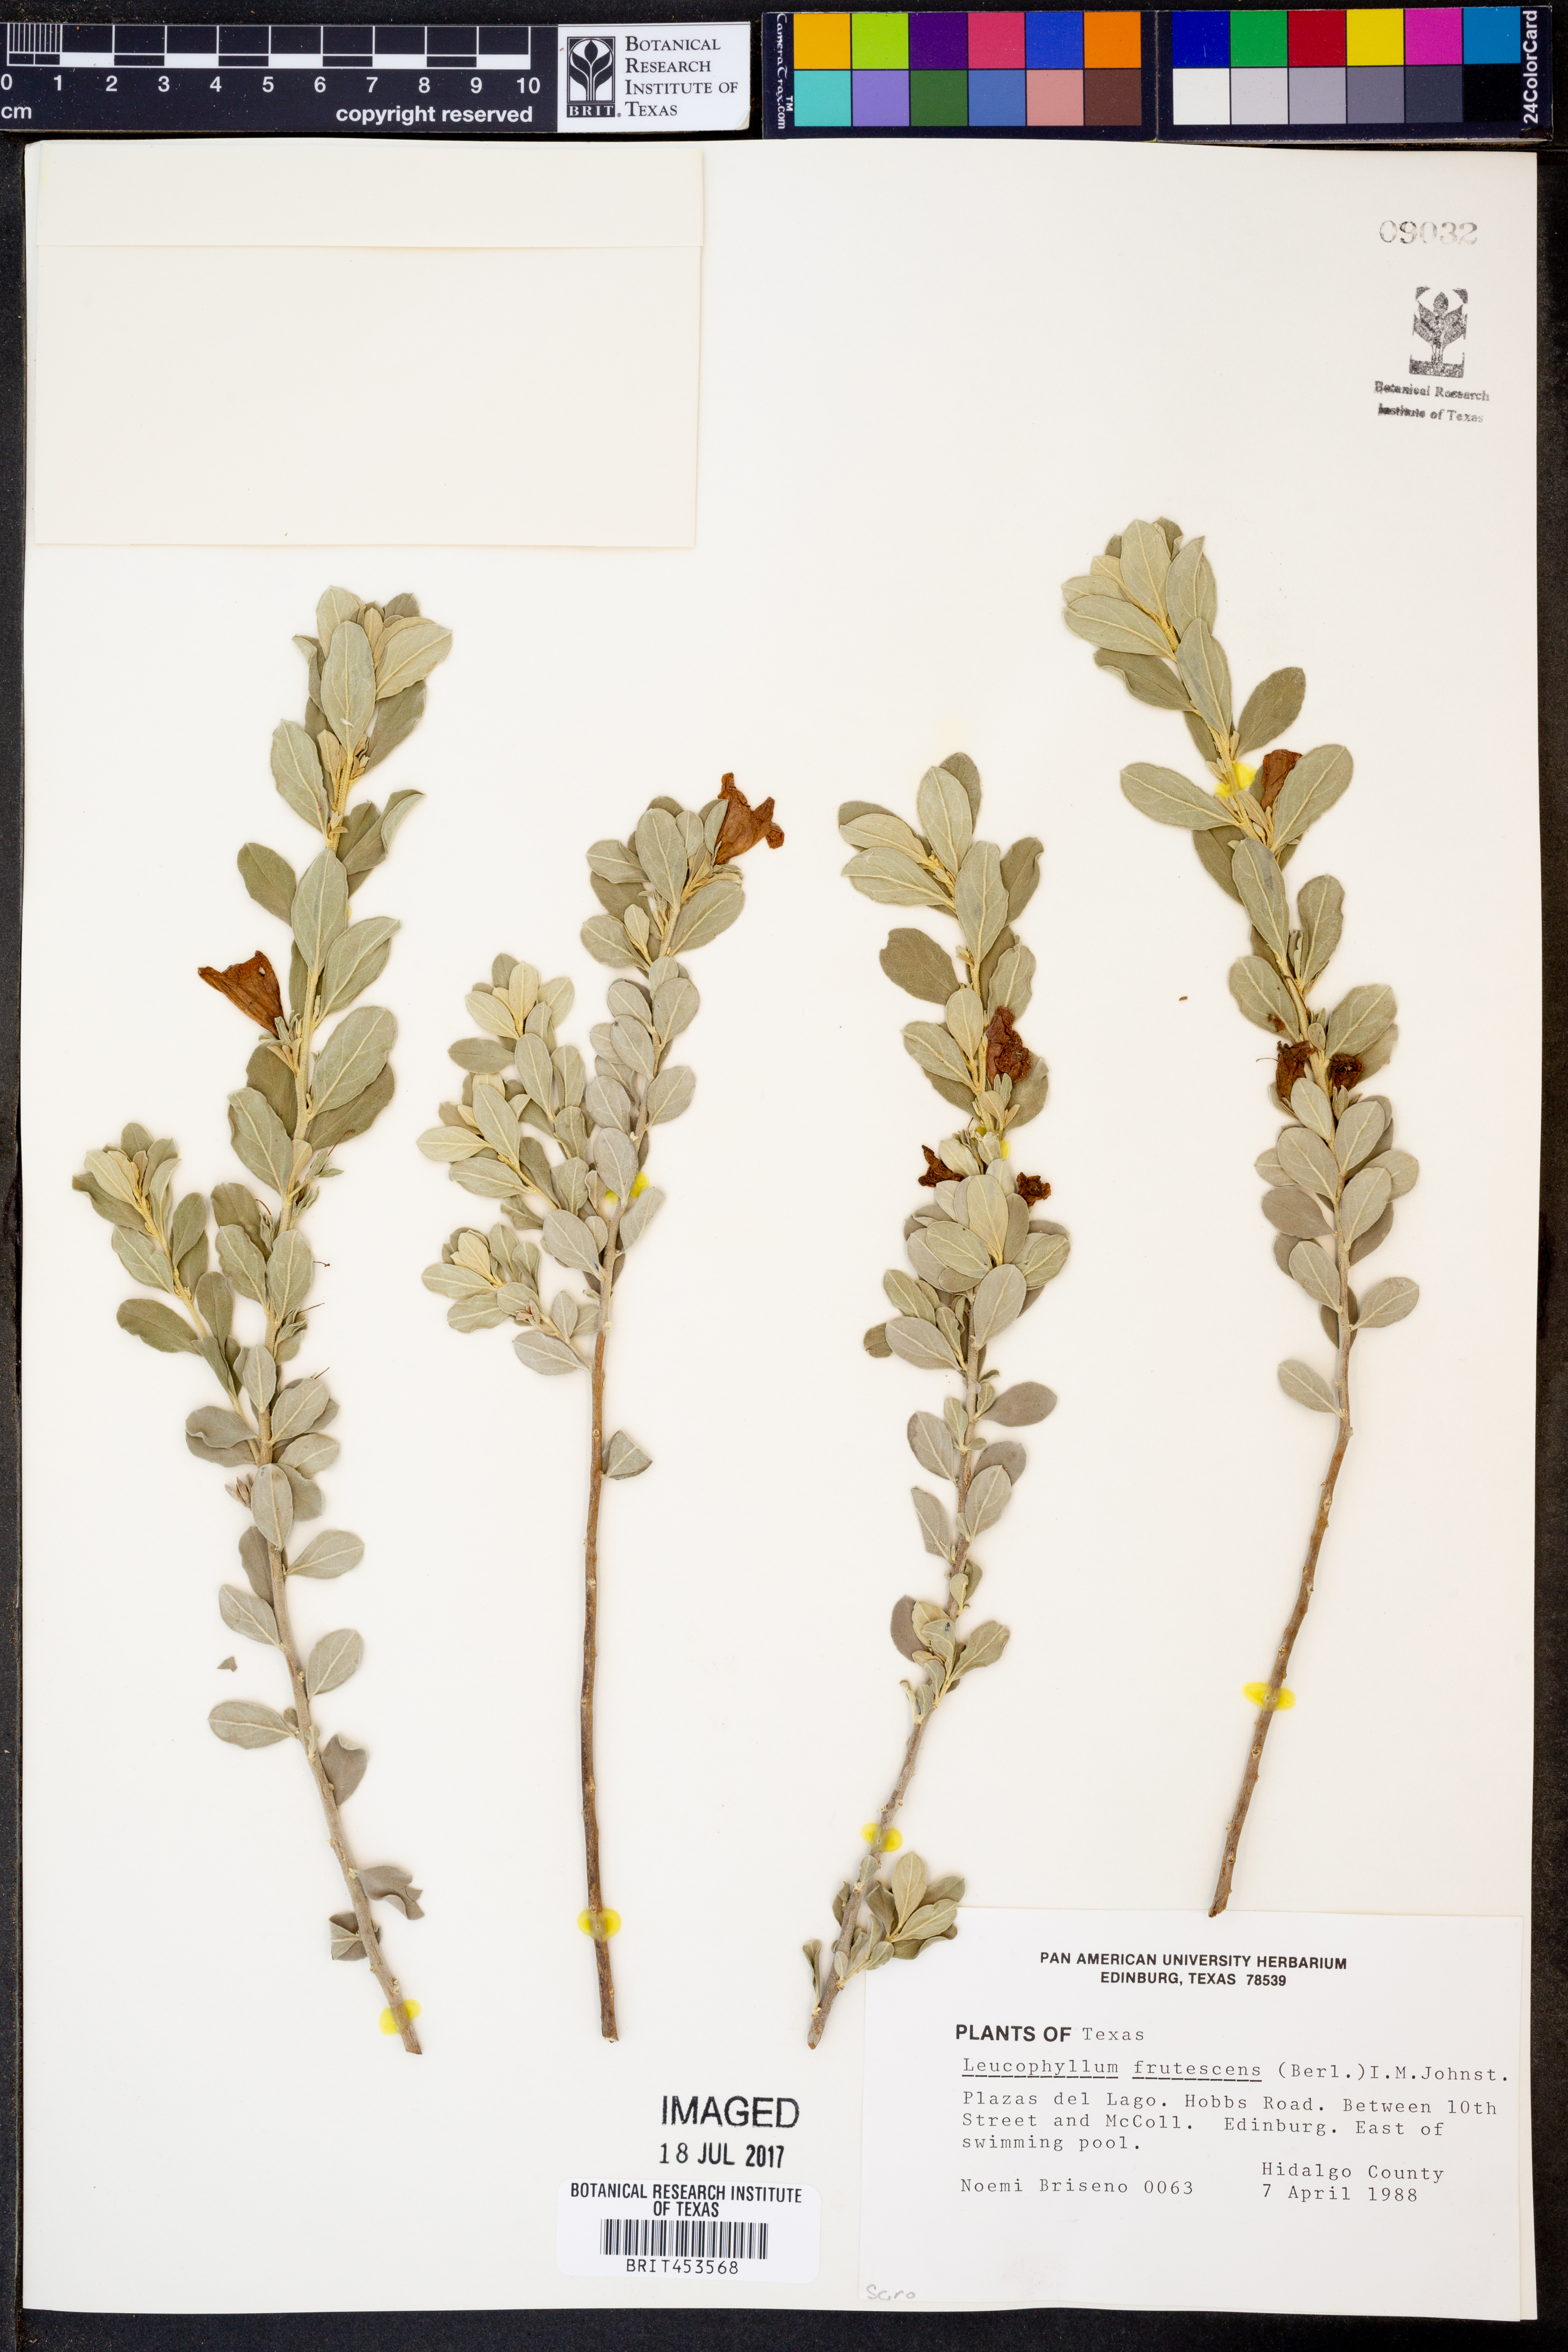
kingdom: Plantae
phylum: Tracheophyta
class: Magnoliopsida
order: Lamiales
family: Scrophulariaceae
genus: Leucophyllum
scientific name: Leucophyllum frutescens
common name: Texas silverleaf
